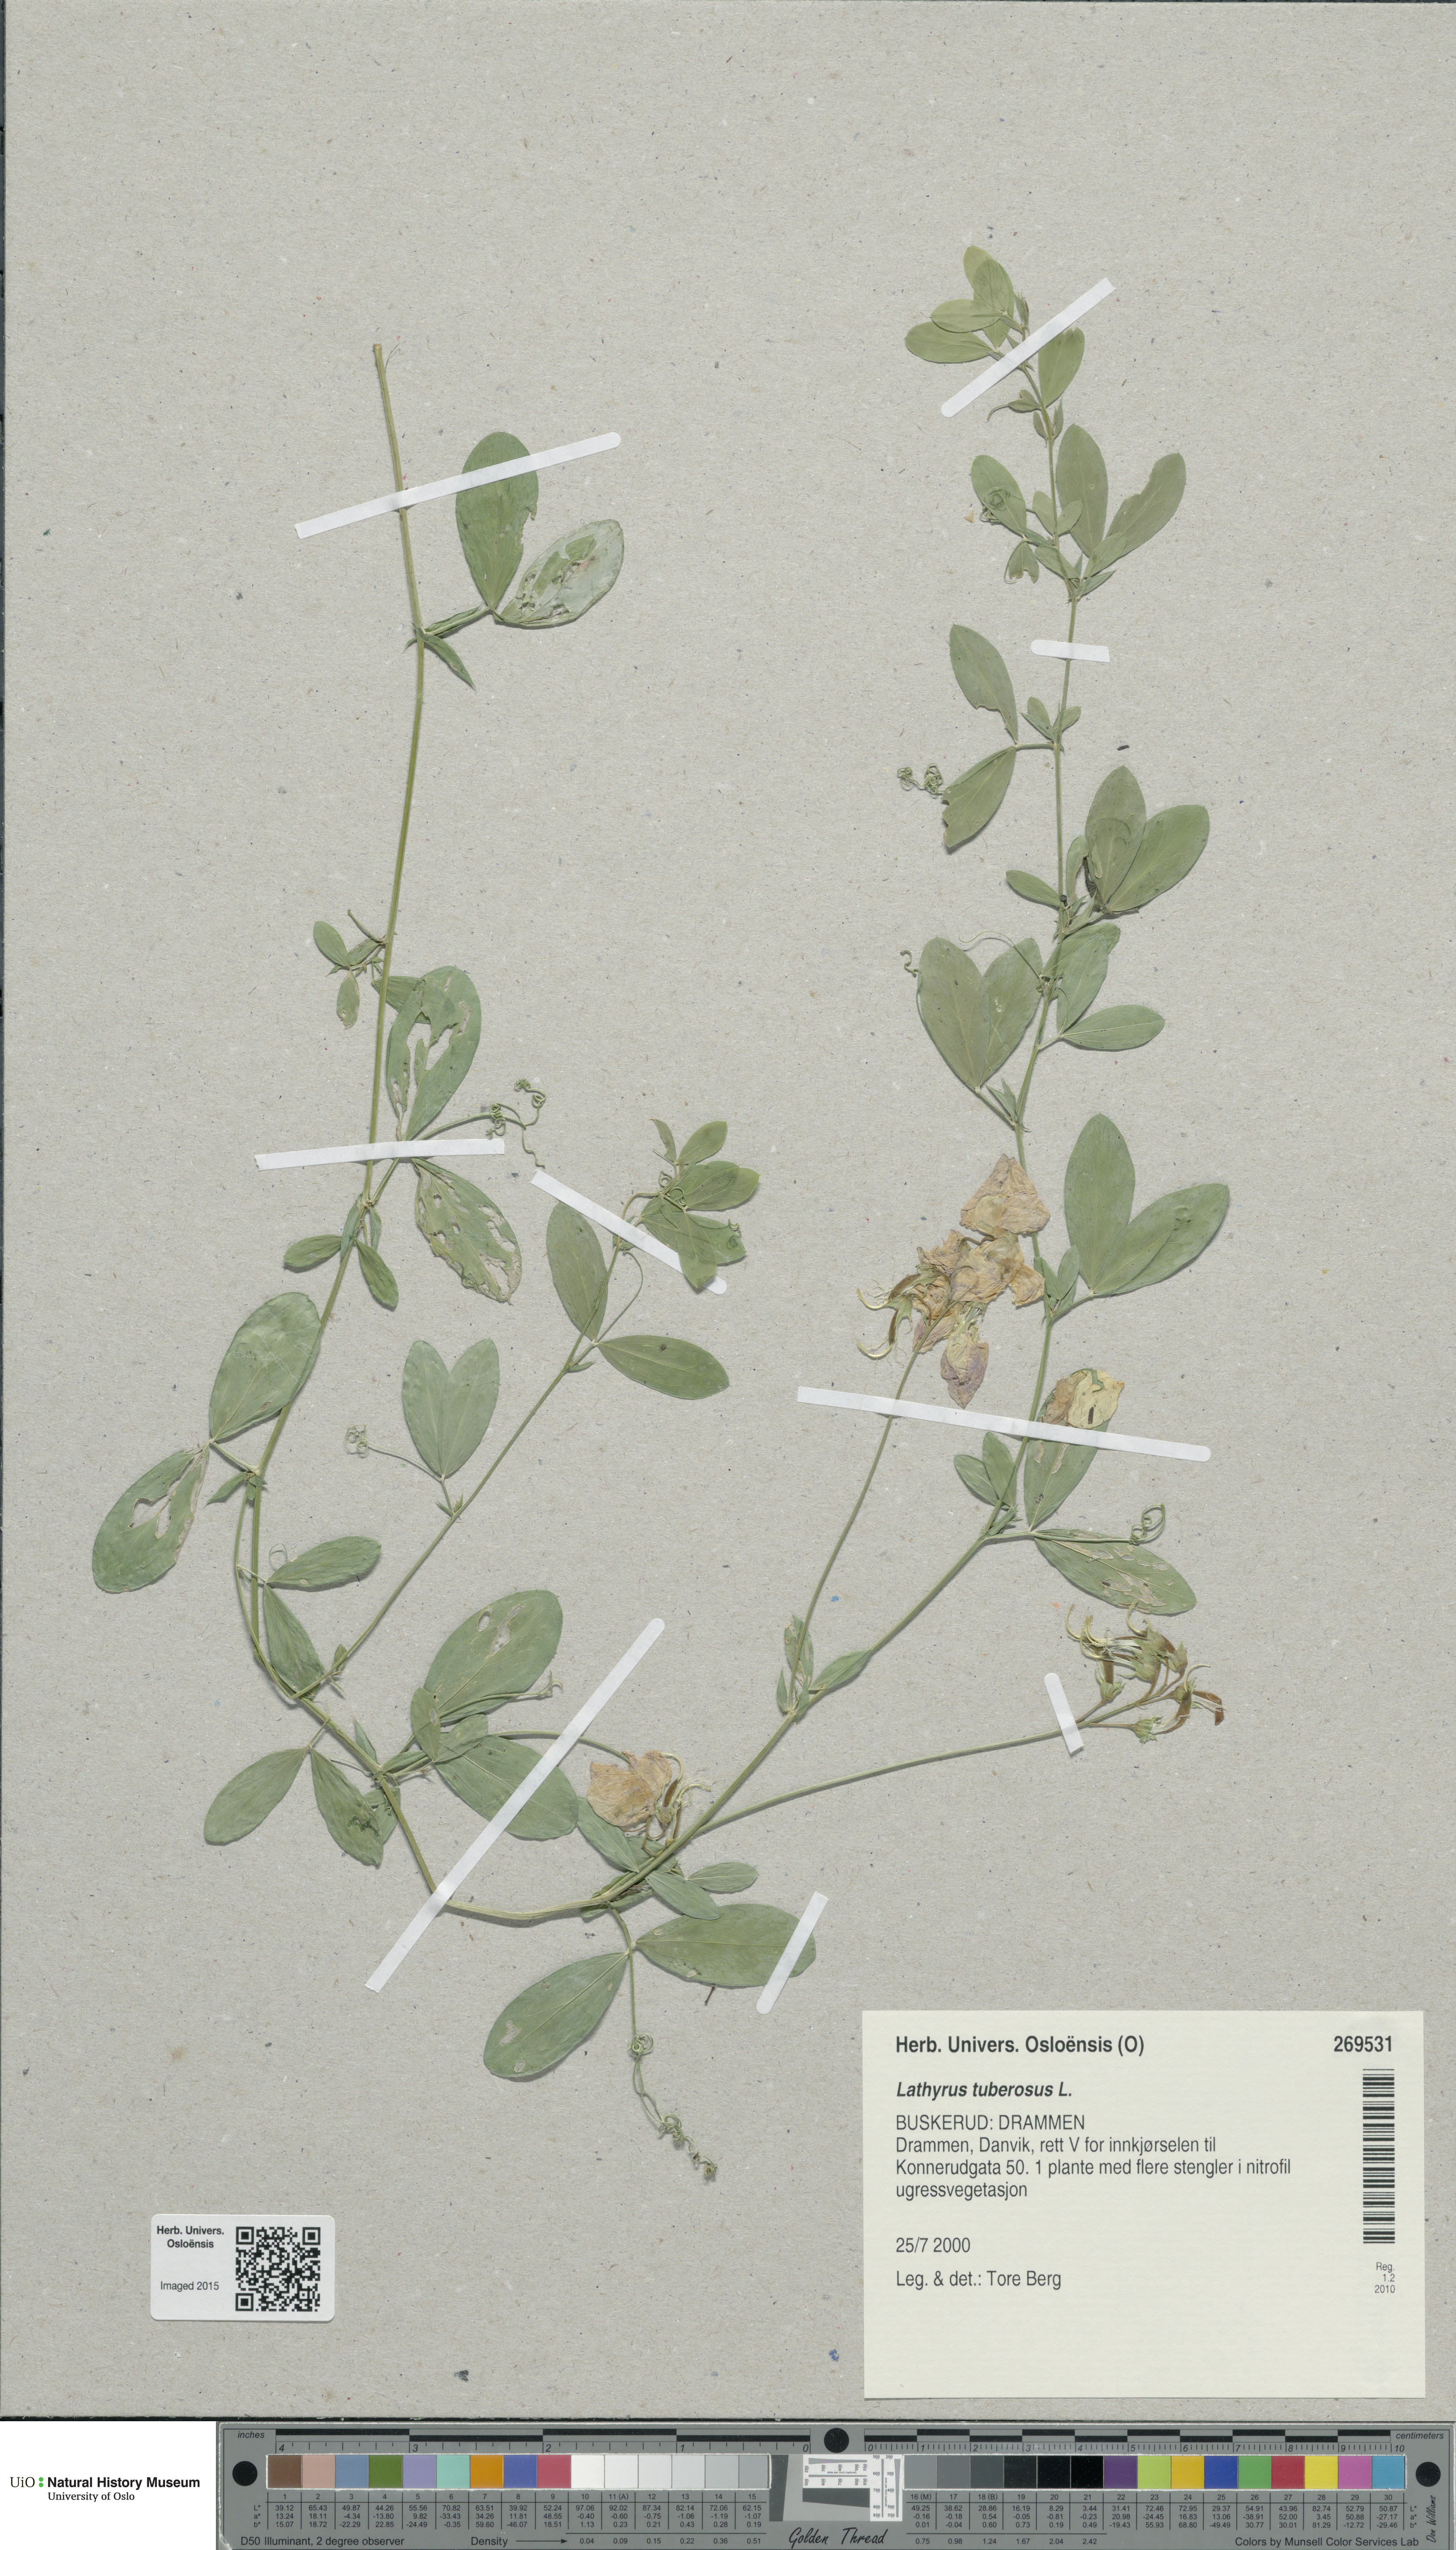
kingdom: Plantae
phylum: Tracheophyta
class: Magnoliopsida
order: Fabales
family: Fabaceae
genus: Lathyrus
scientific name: Lathyrus tuberosus
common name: Tuberous pea
